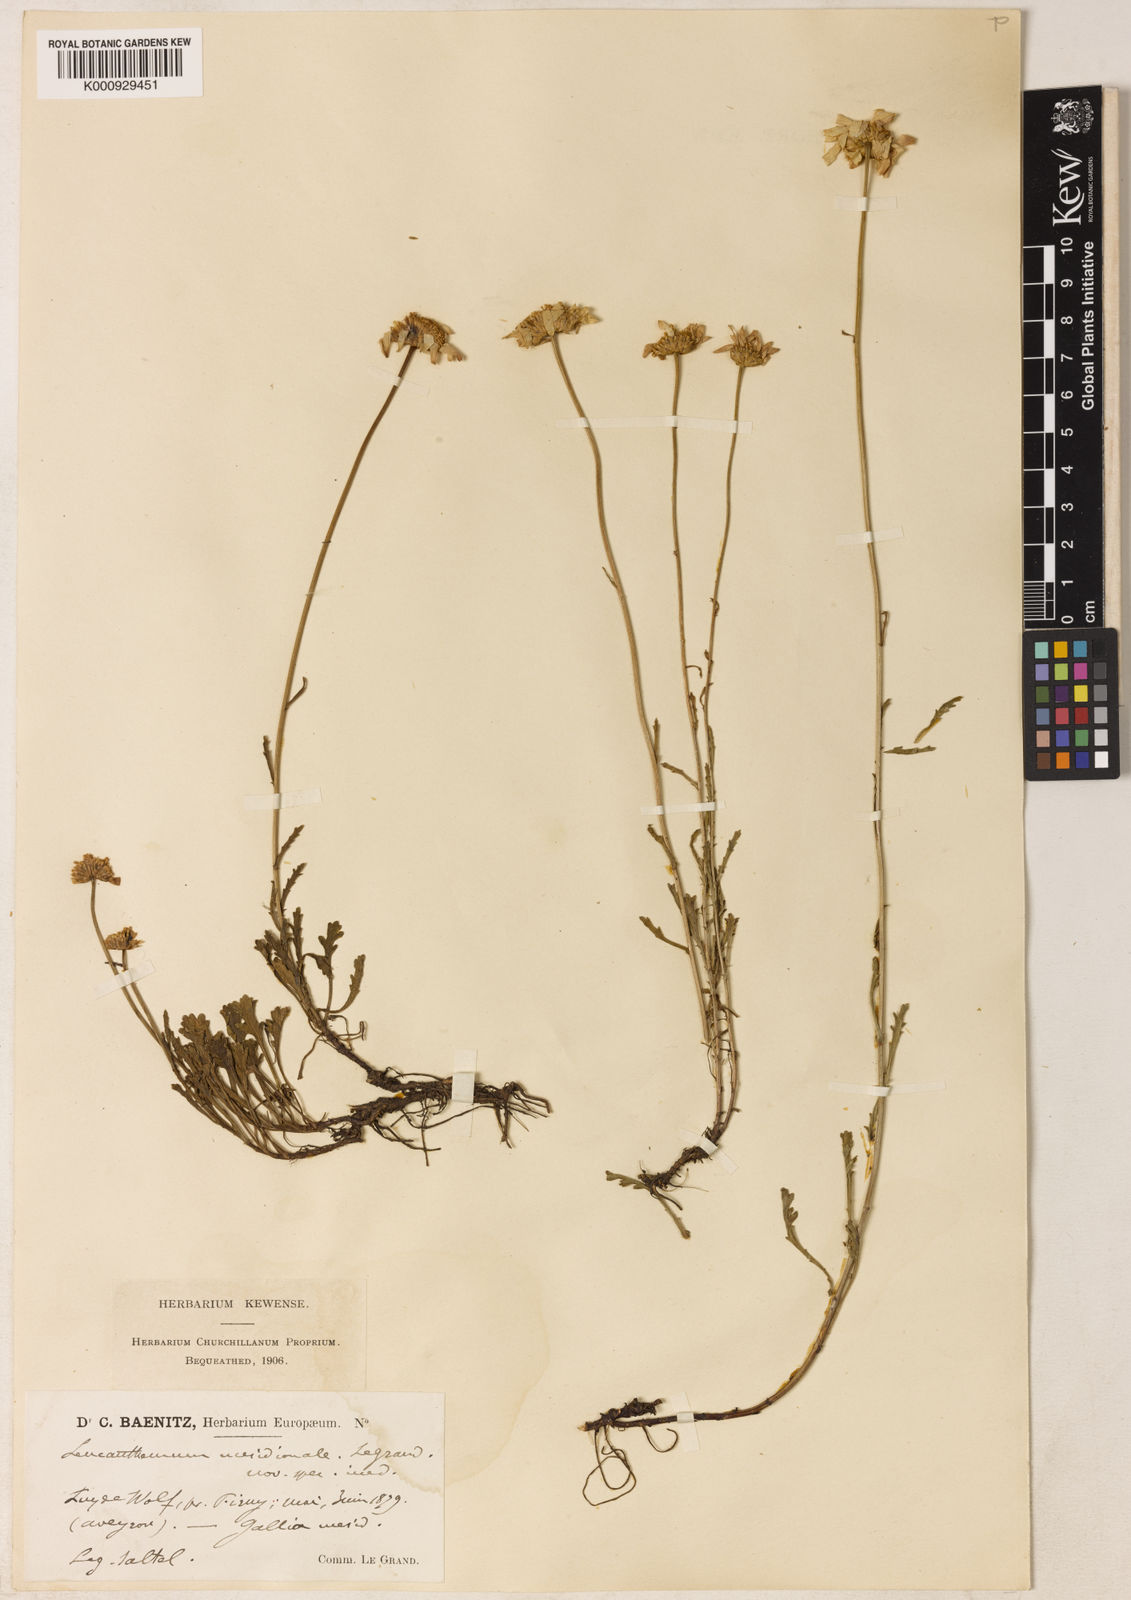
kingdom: Plantae
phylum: Tracheophyta
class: Magnoliopsida
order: Asterales
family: Asteraceae
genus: Leucanthemum
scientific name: Leucanthemum meridionale
